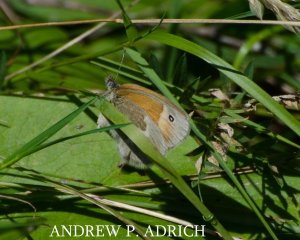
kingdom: Animalia
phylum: Arthropoda
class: Insecta
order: Lepidoptera
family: Nymphalidae
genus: Coenonympha
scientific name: Coenonympha tullia
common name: Large Heath
